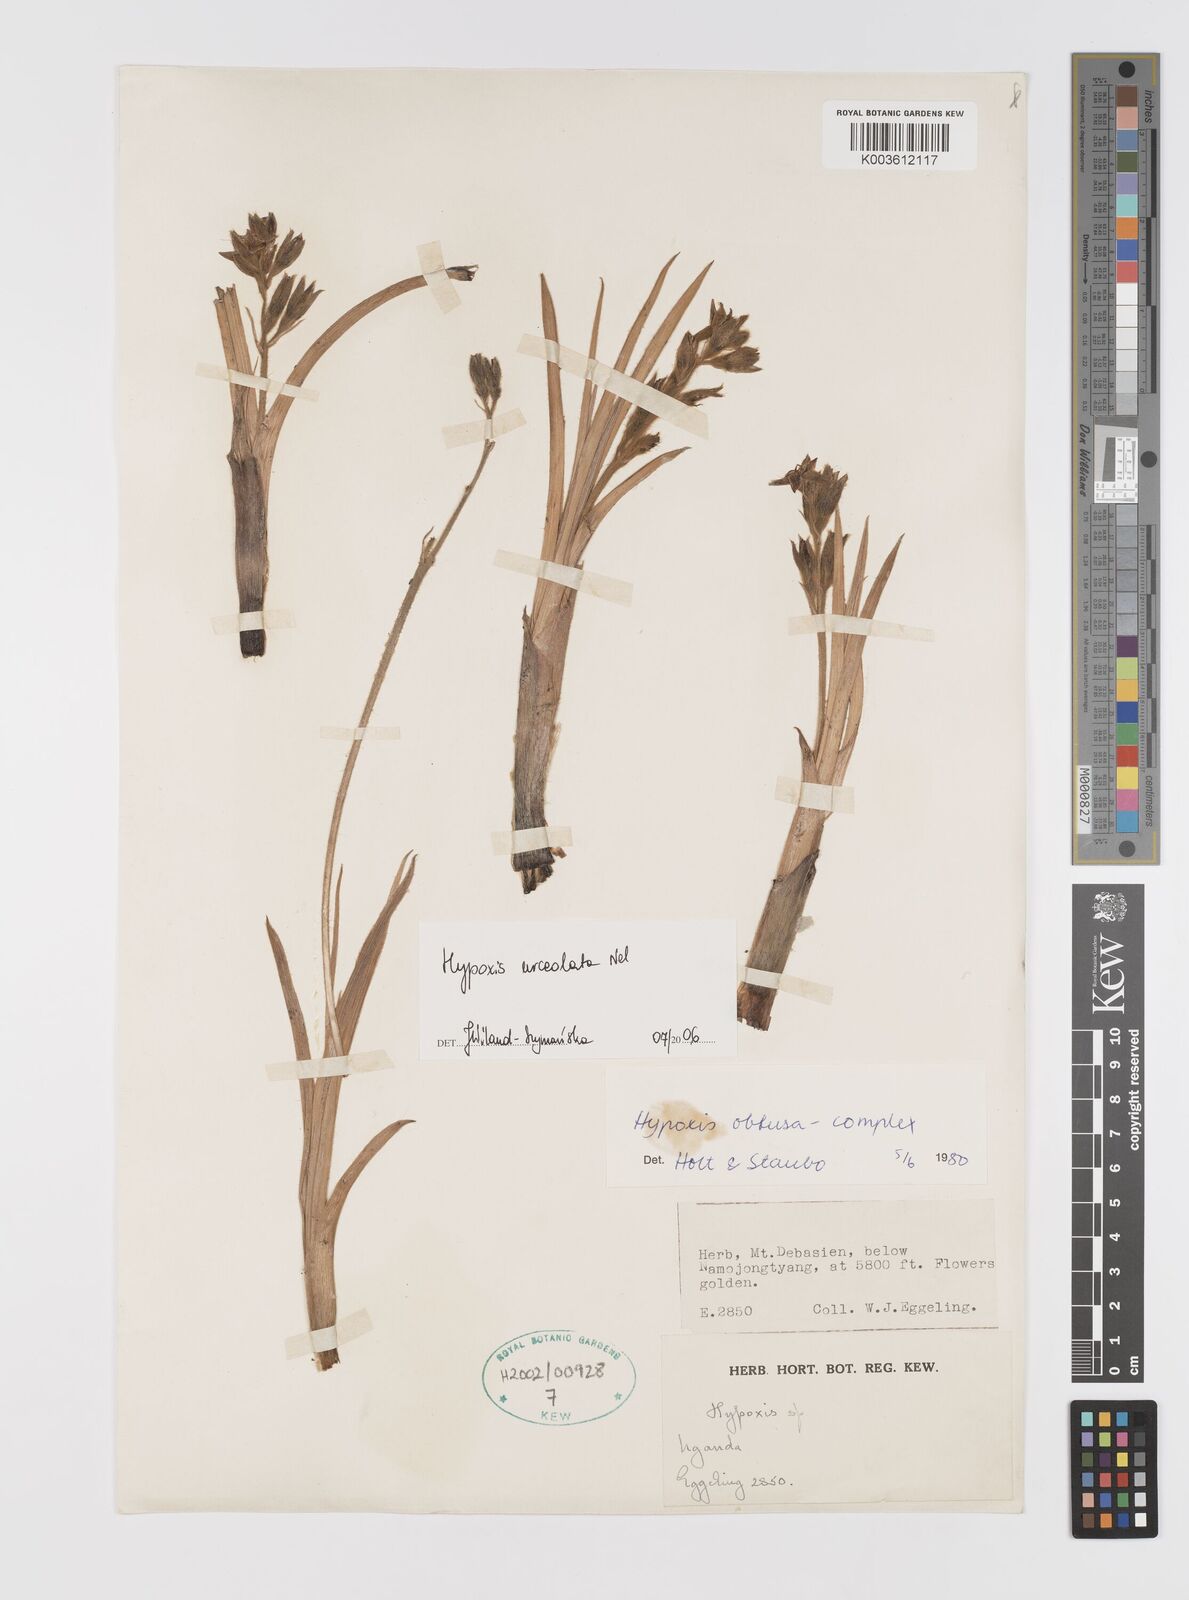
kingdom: Plantae
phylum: Tracheophyta
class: Liliopsida
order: Asparagales
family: Hypoxidaceae
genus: Hypoxis
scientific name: Hypoxis urceolata
